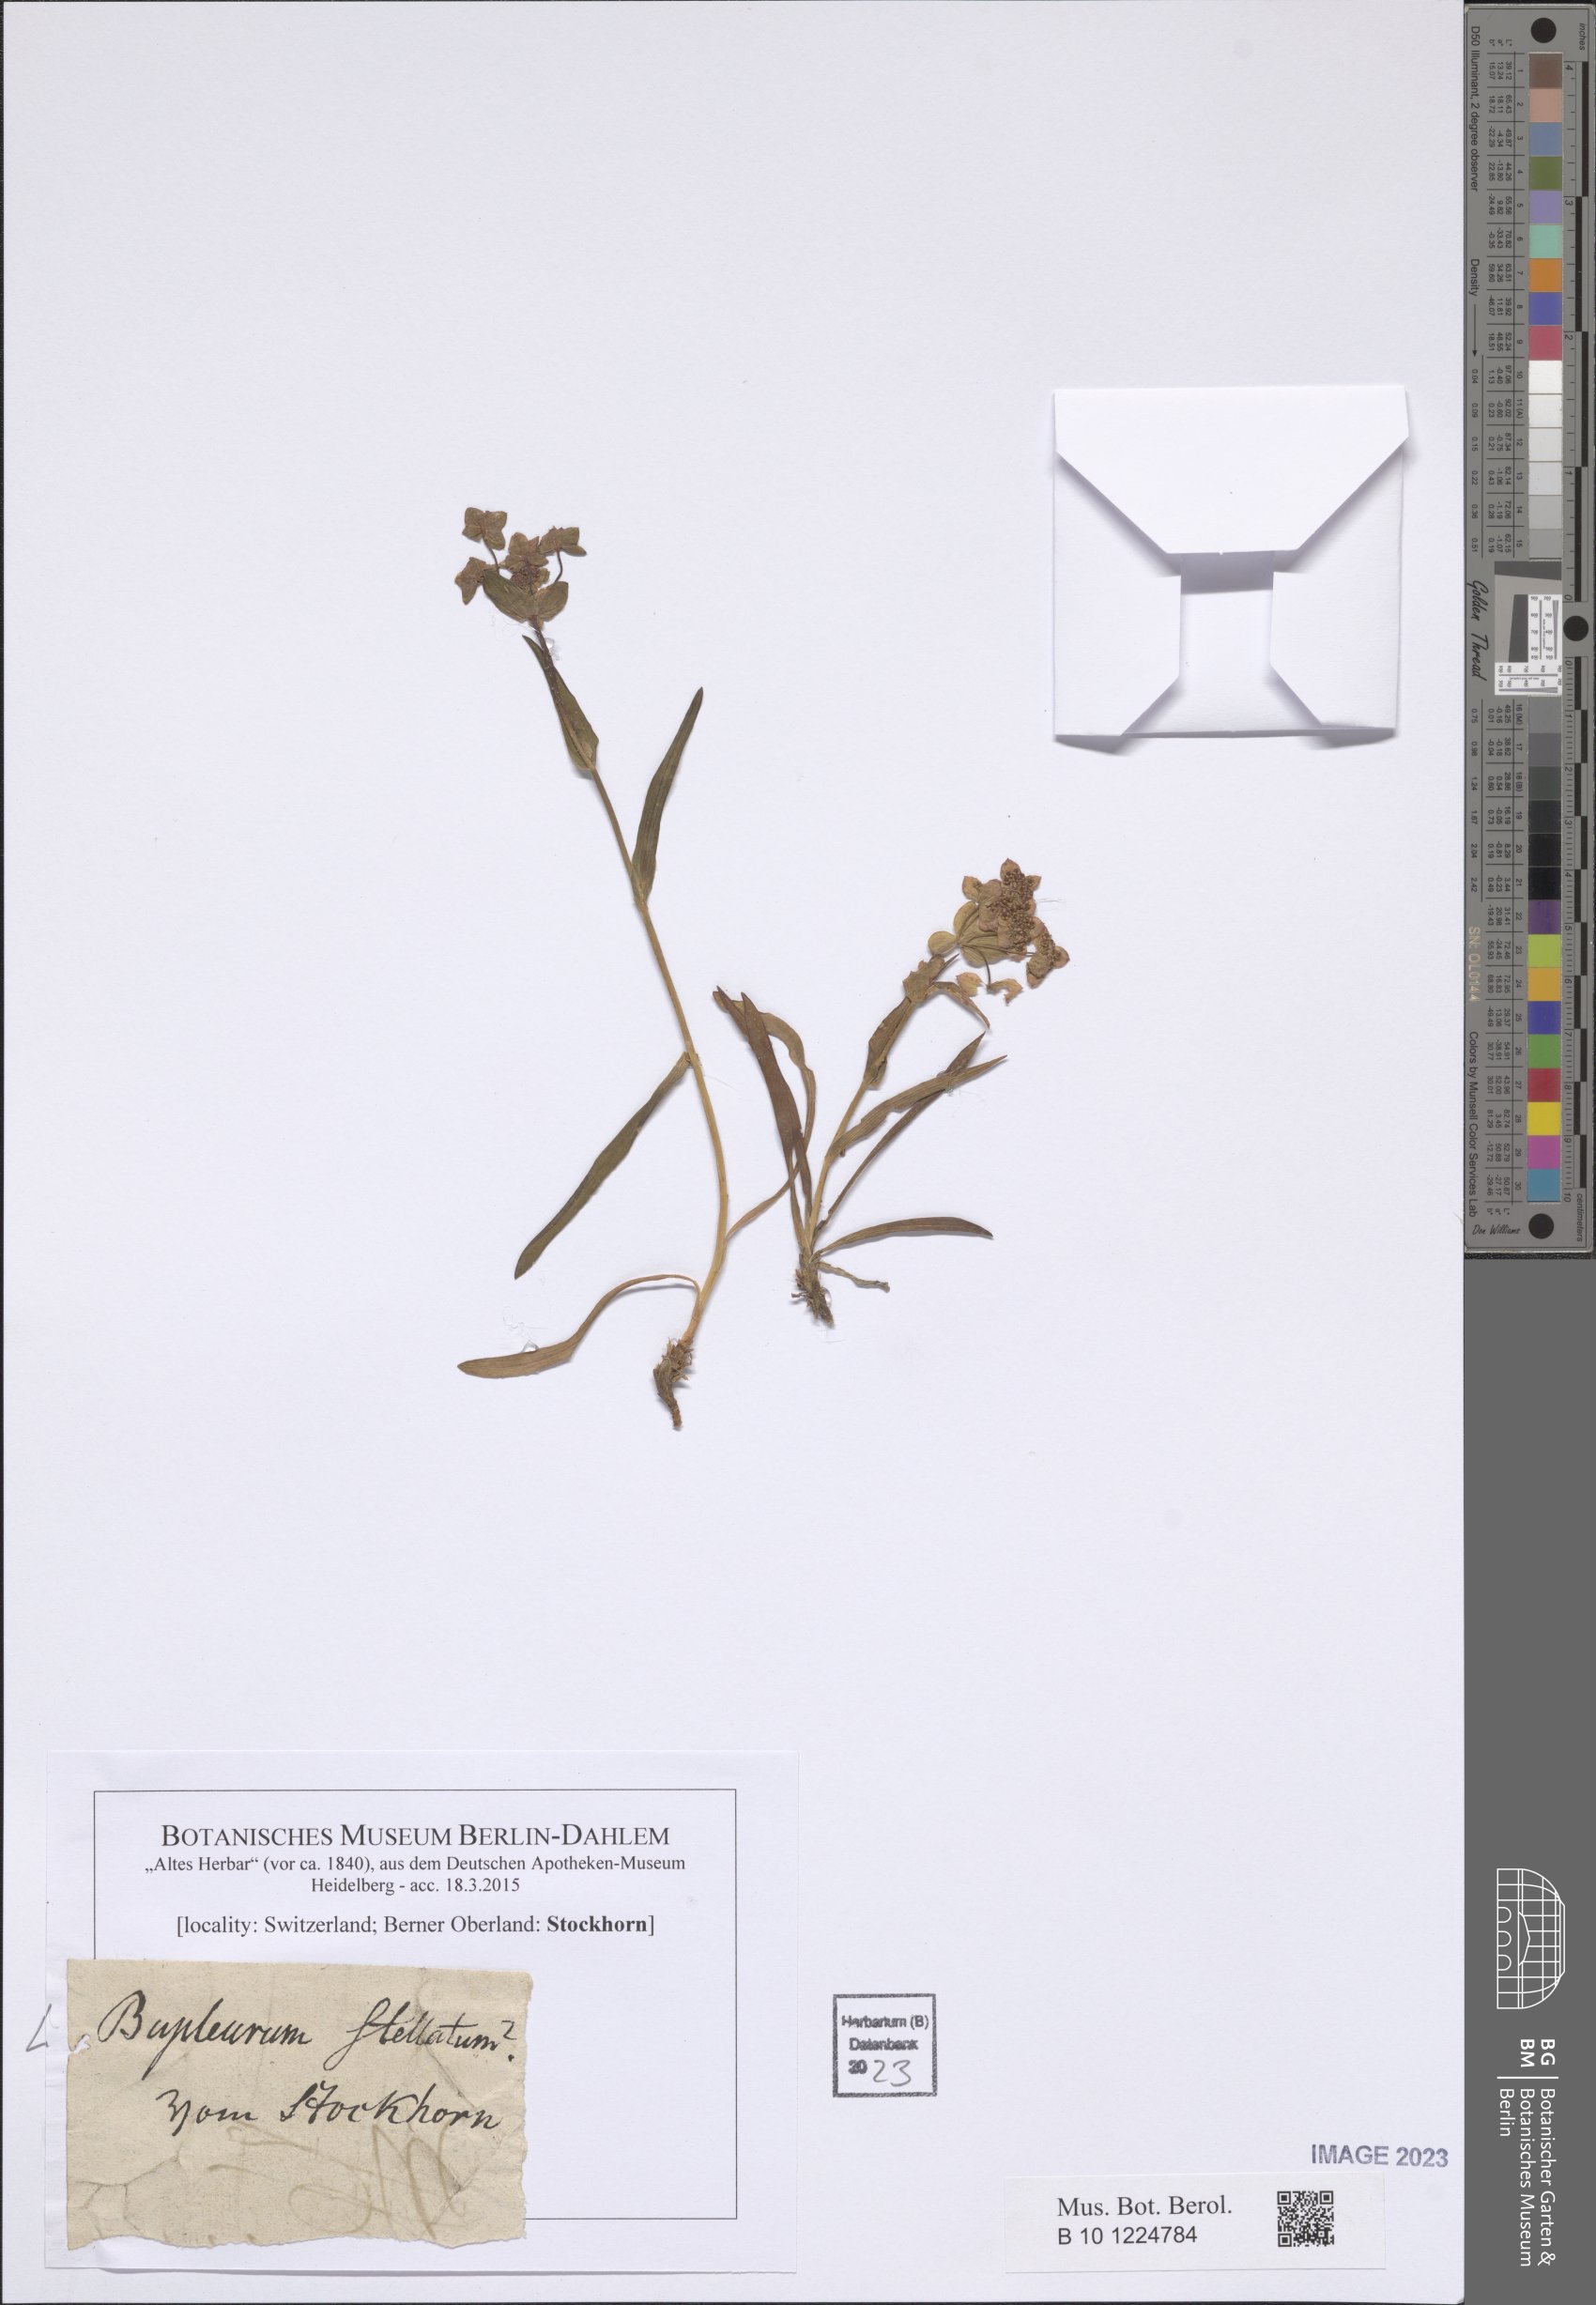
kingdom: Plantae
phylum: Tracheophyta
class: Magnoliopsida
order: Apiales
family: Apiaceae
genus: Bupleurum
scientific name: Bupleurum stellatum
